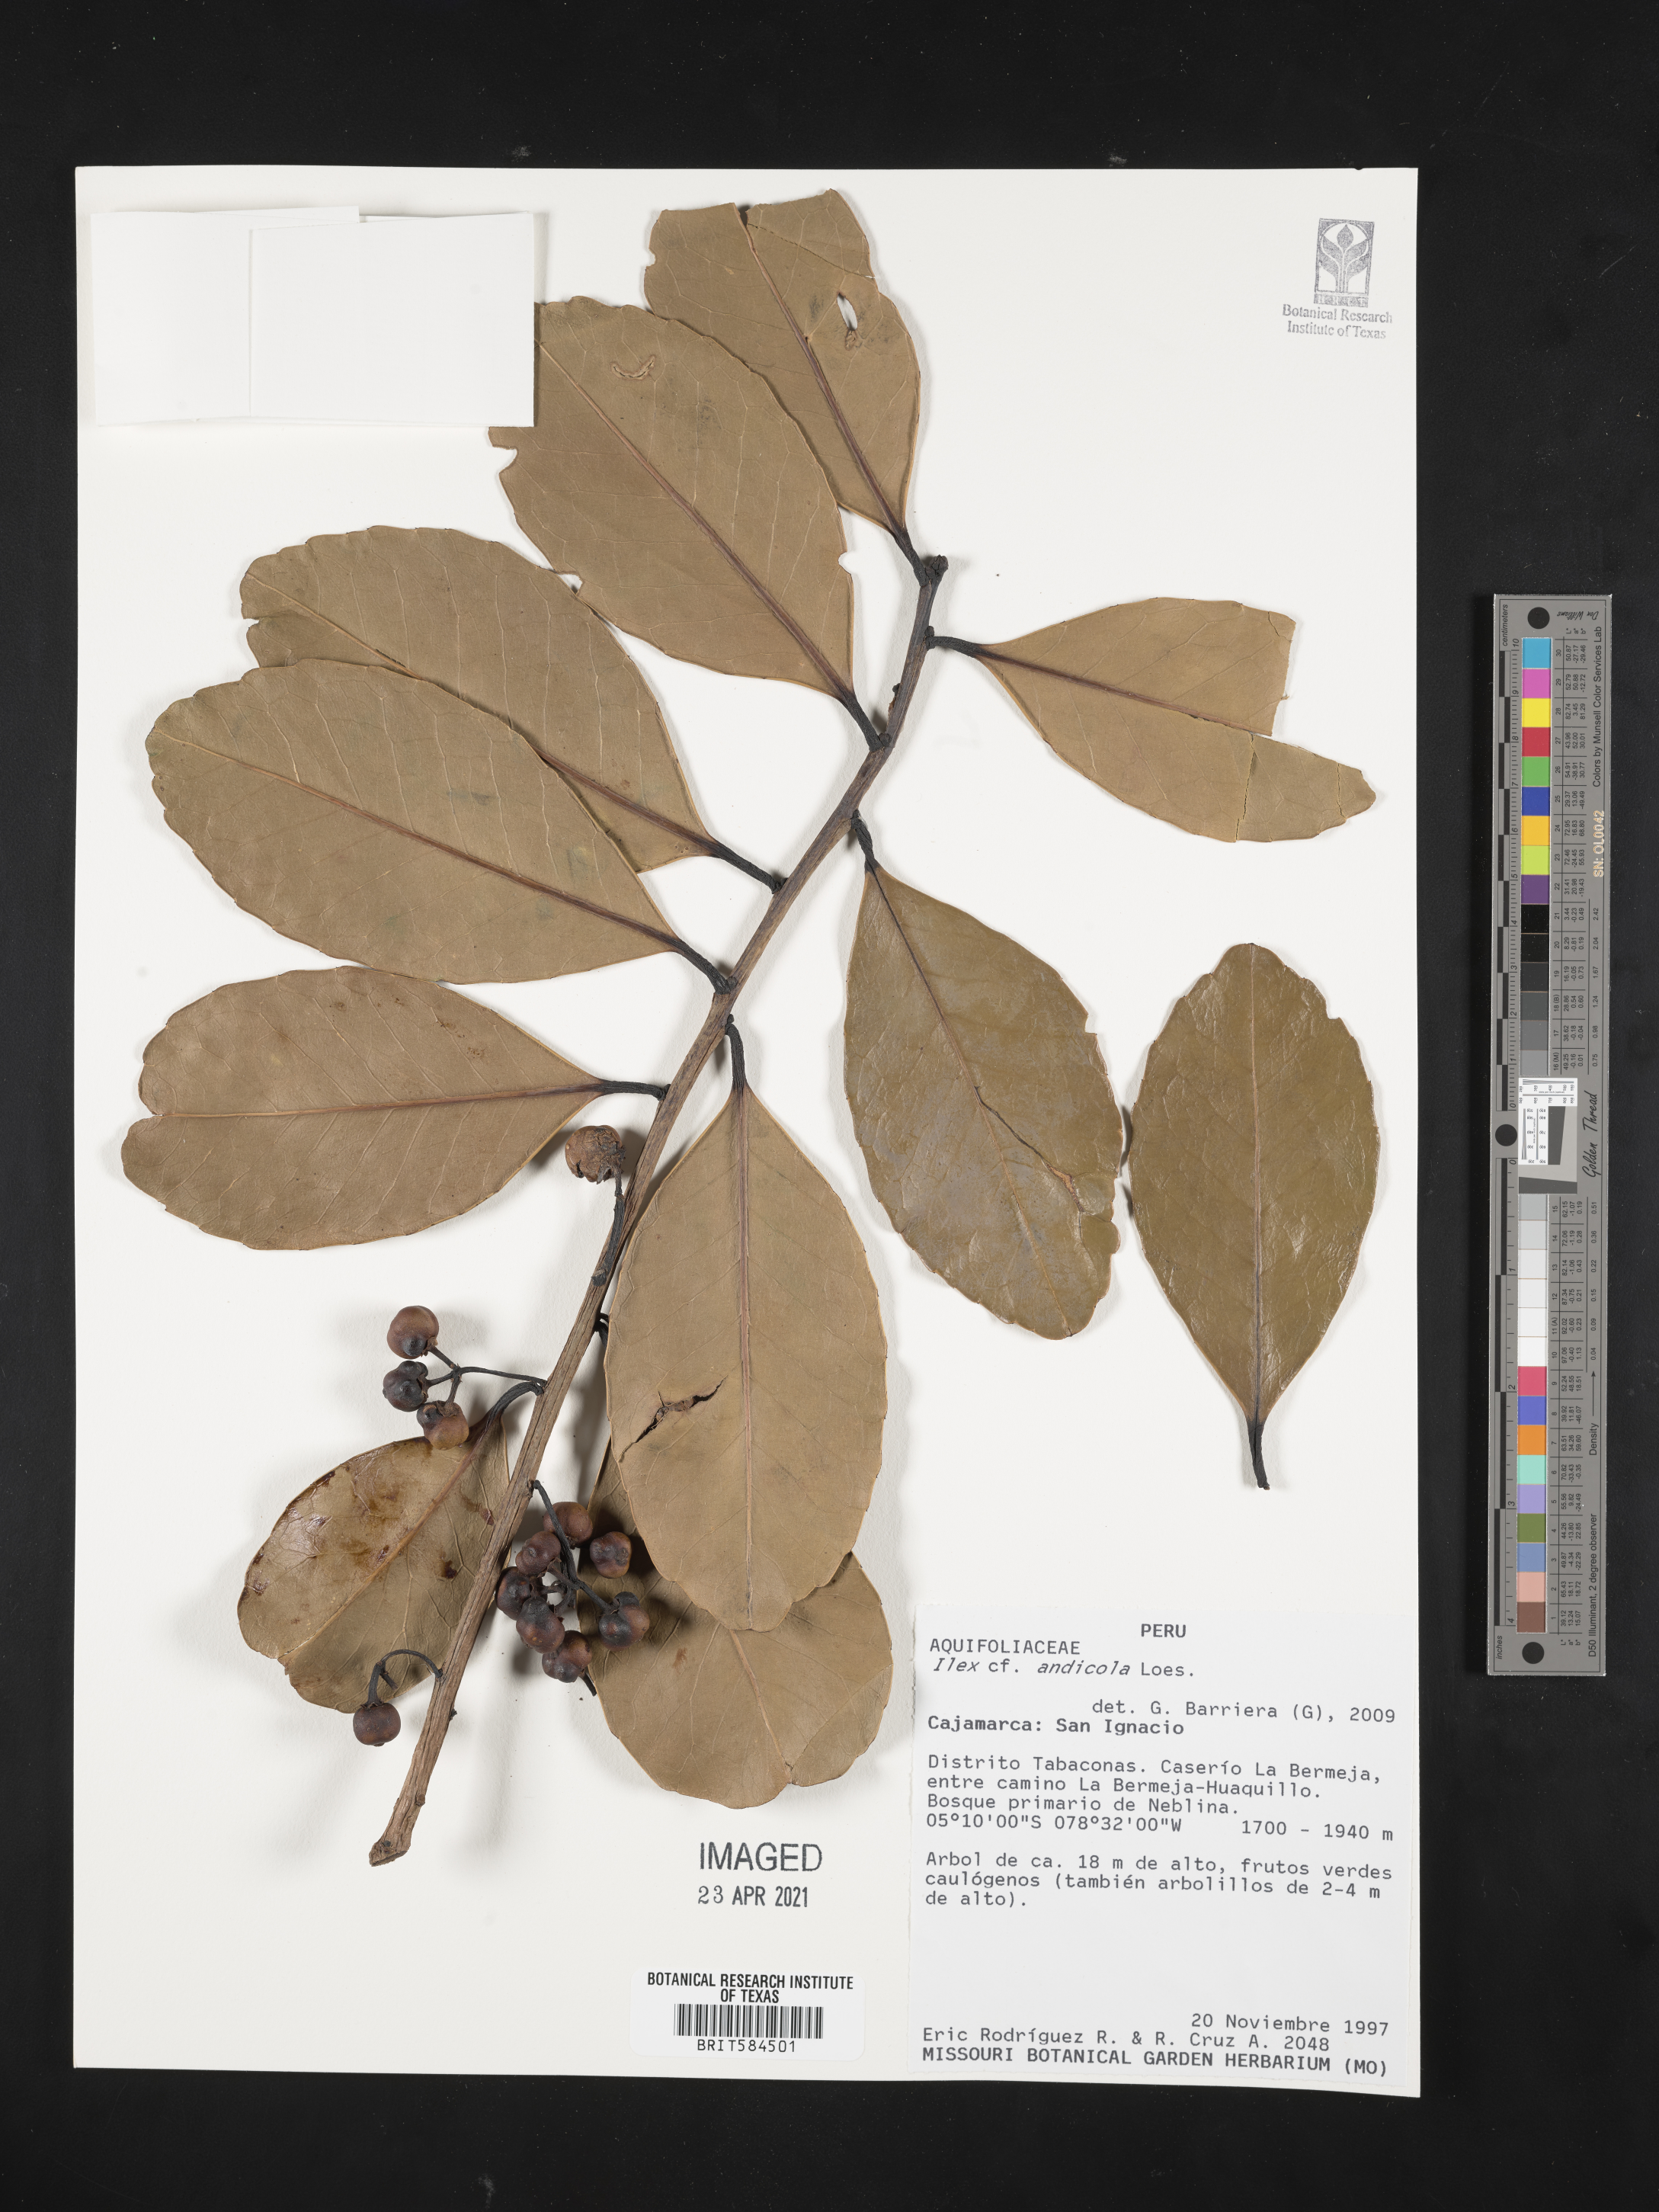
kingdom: Plantae
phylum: Tracheophyta
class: Magnoliopsida
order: Aquifoliales
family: Aquifoliaceae
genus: Ilex
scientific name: Ilex andicola
